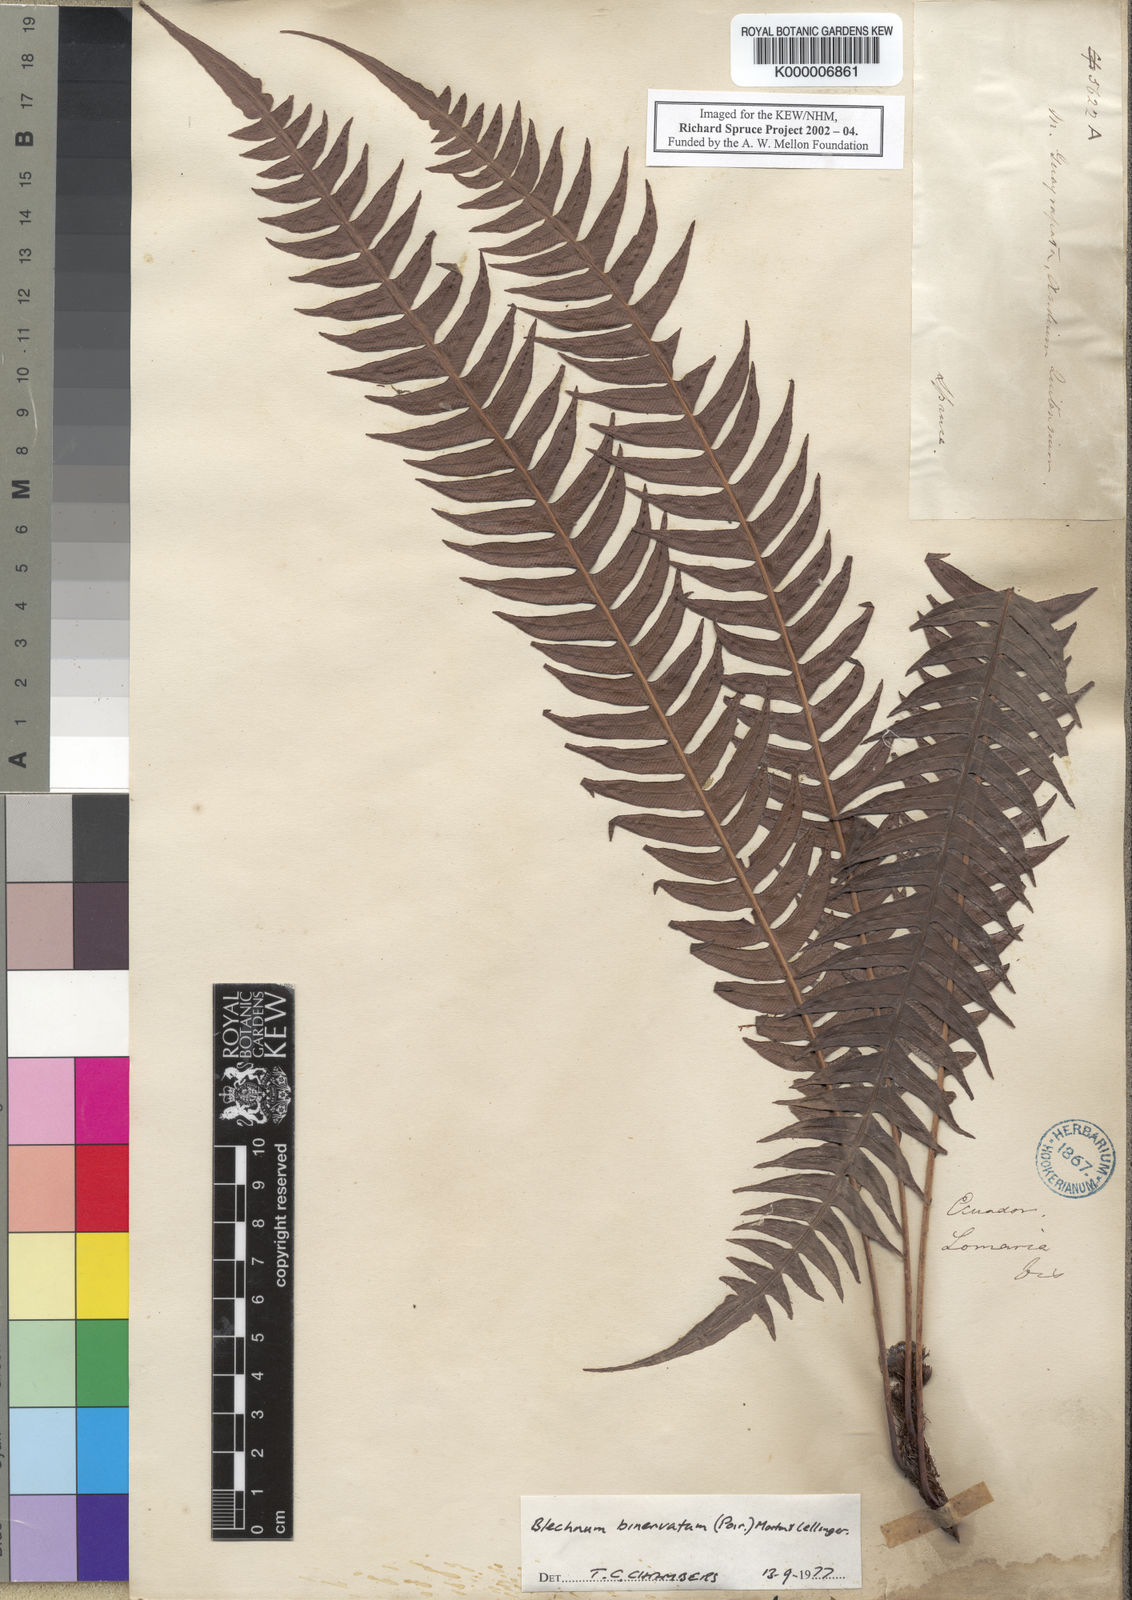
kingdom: Plantae
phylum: Tracheophyta
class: Polypodiopsida
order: Polypodiales
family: Blechnaceae
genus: Lomaridium
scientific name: Lomaridium binervatum
